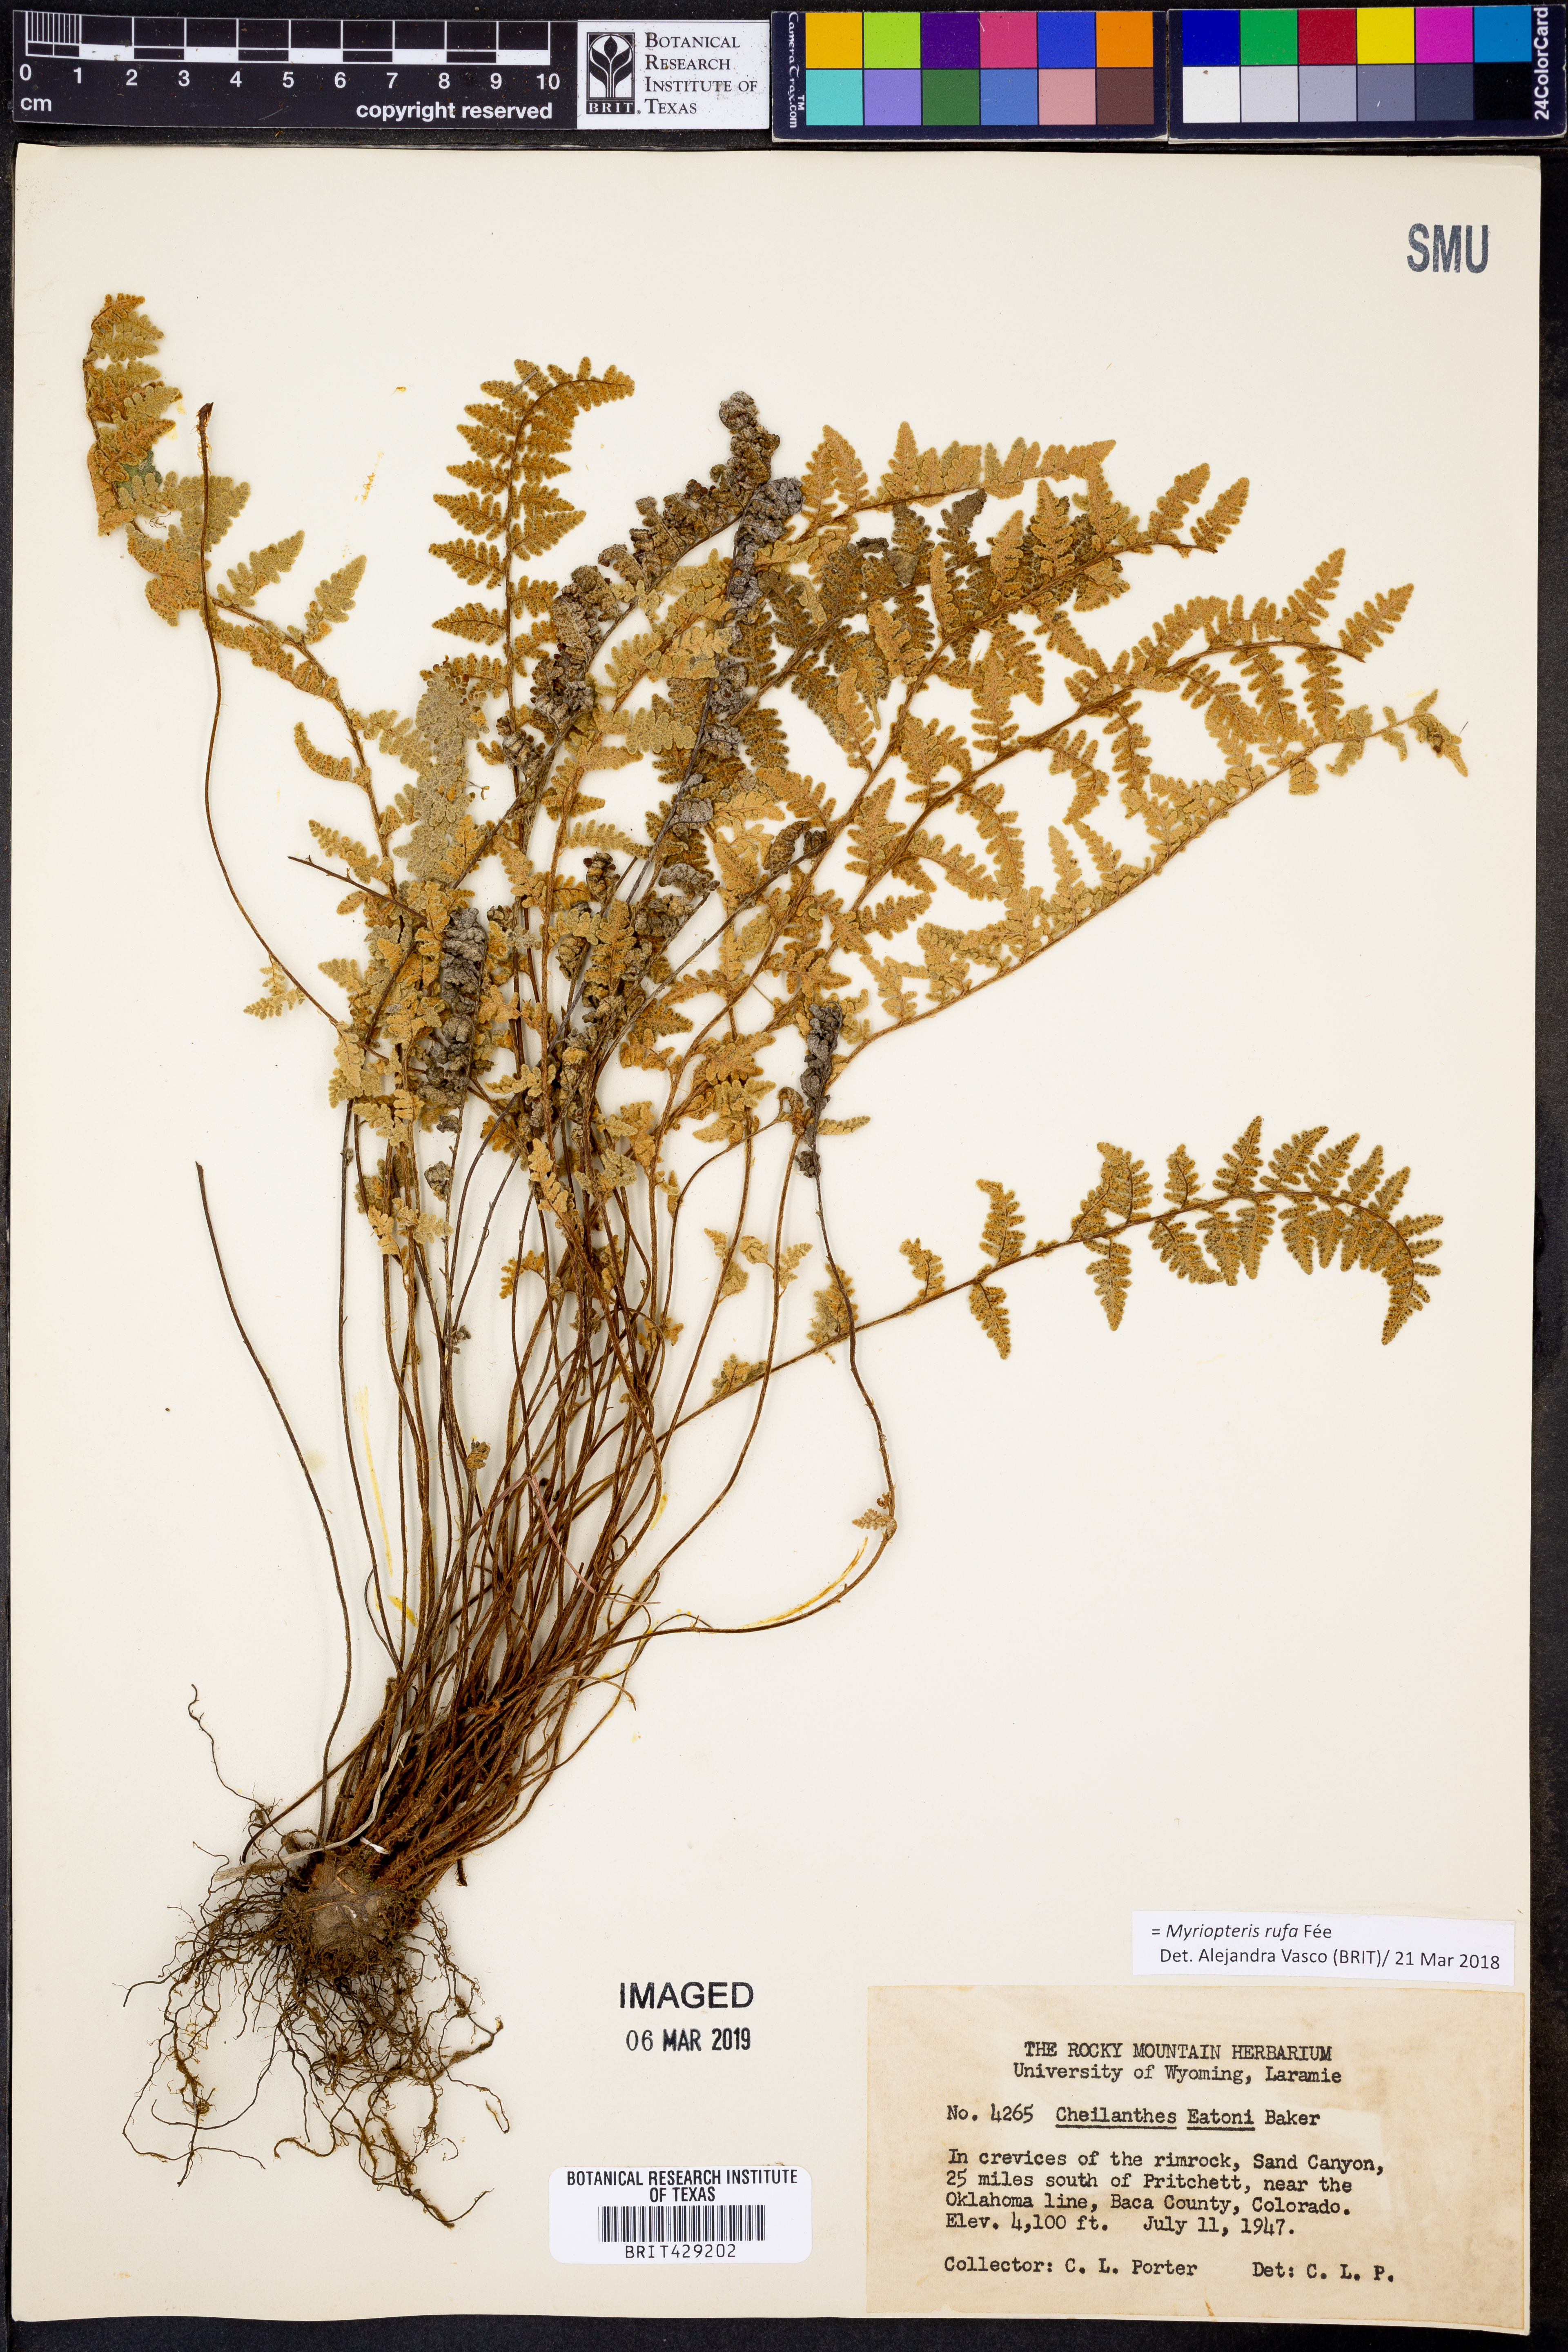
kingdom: Plantae
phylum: Tracheophyta
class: Polypodiopsida
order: Polypodiales
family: Pteridaceae
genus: Myriopteris
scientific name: Myriopteris rufa
